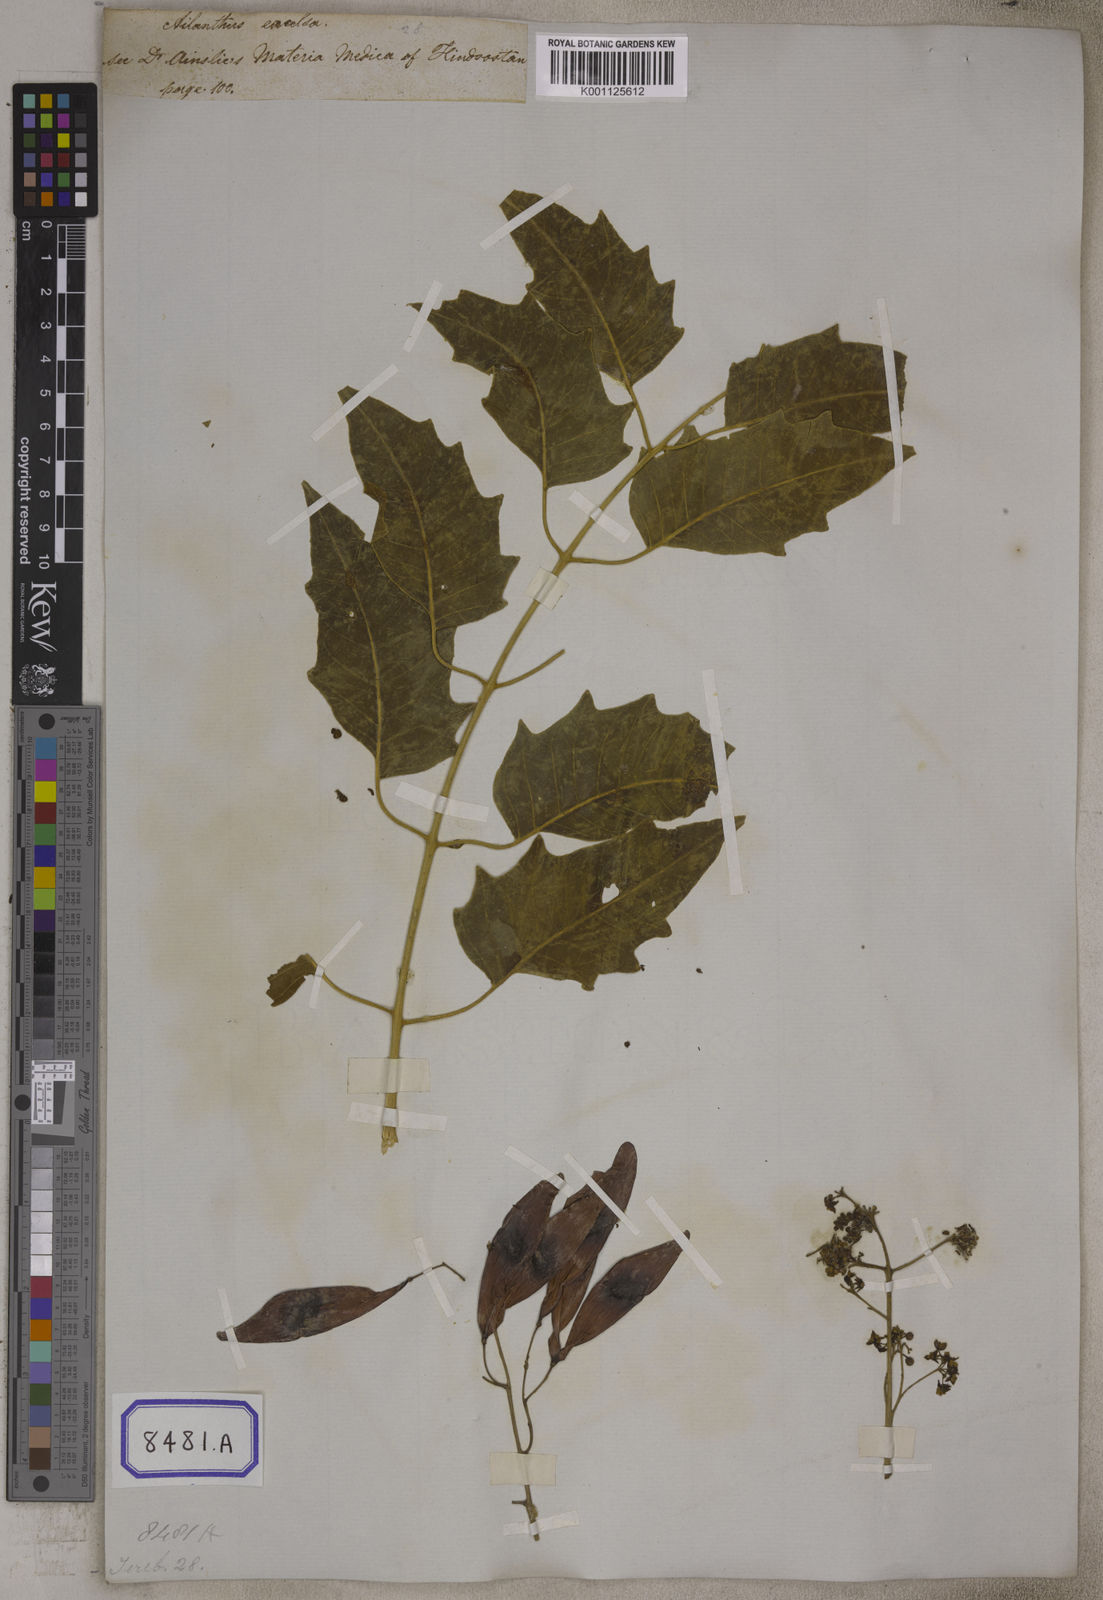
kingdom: Plantae
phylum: Tracheophyta
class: Magnoliopsida
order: Sapindales
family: Simaroubaceae
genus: Ailanthus
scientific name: Ailanthus excelsa
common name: Indian tree-of-heaven
